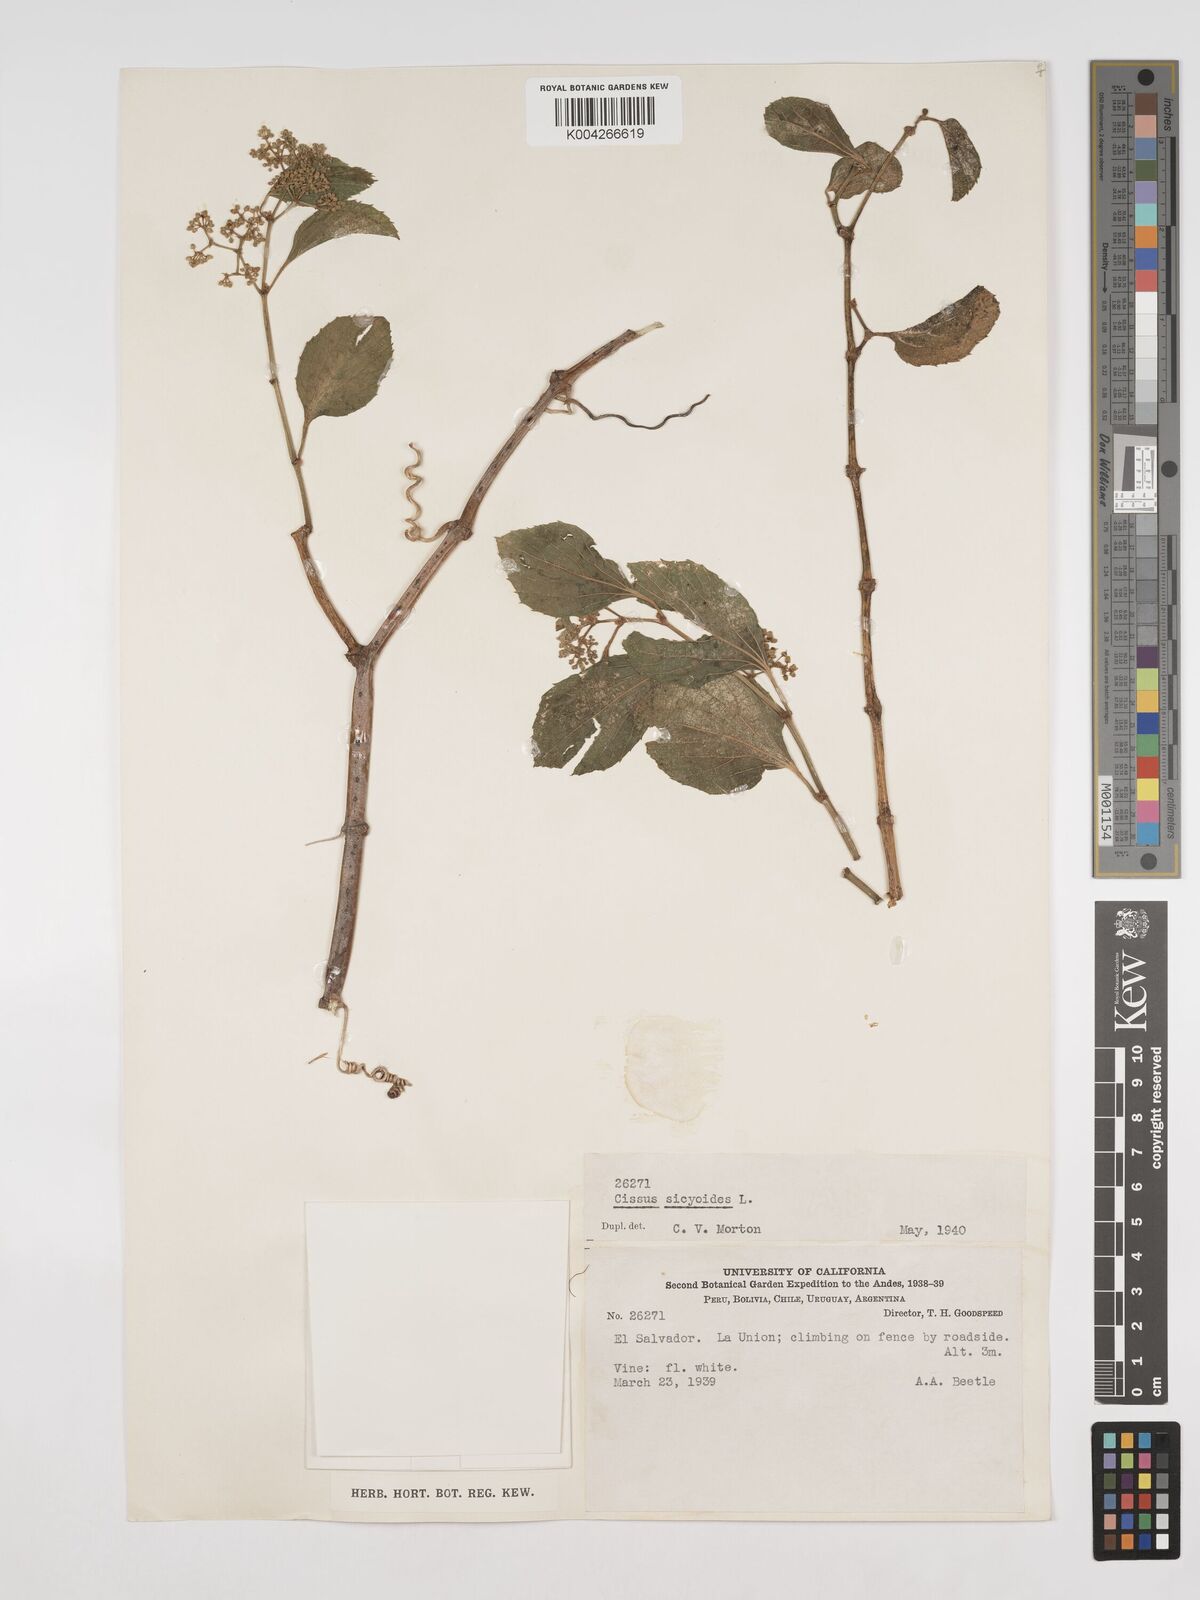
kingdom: Plantae
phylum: Tracheophyta
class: Magnoliopsida
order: Vitales
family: Vitaceae
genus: Cissus
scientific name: Cissus
